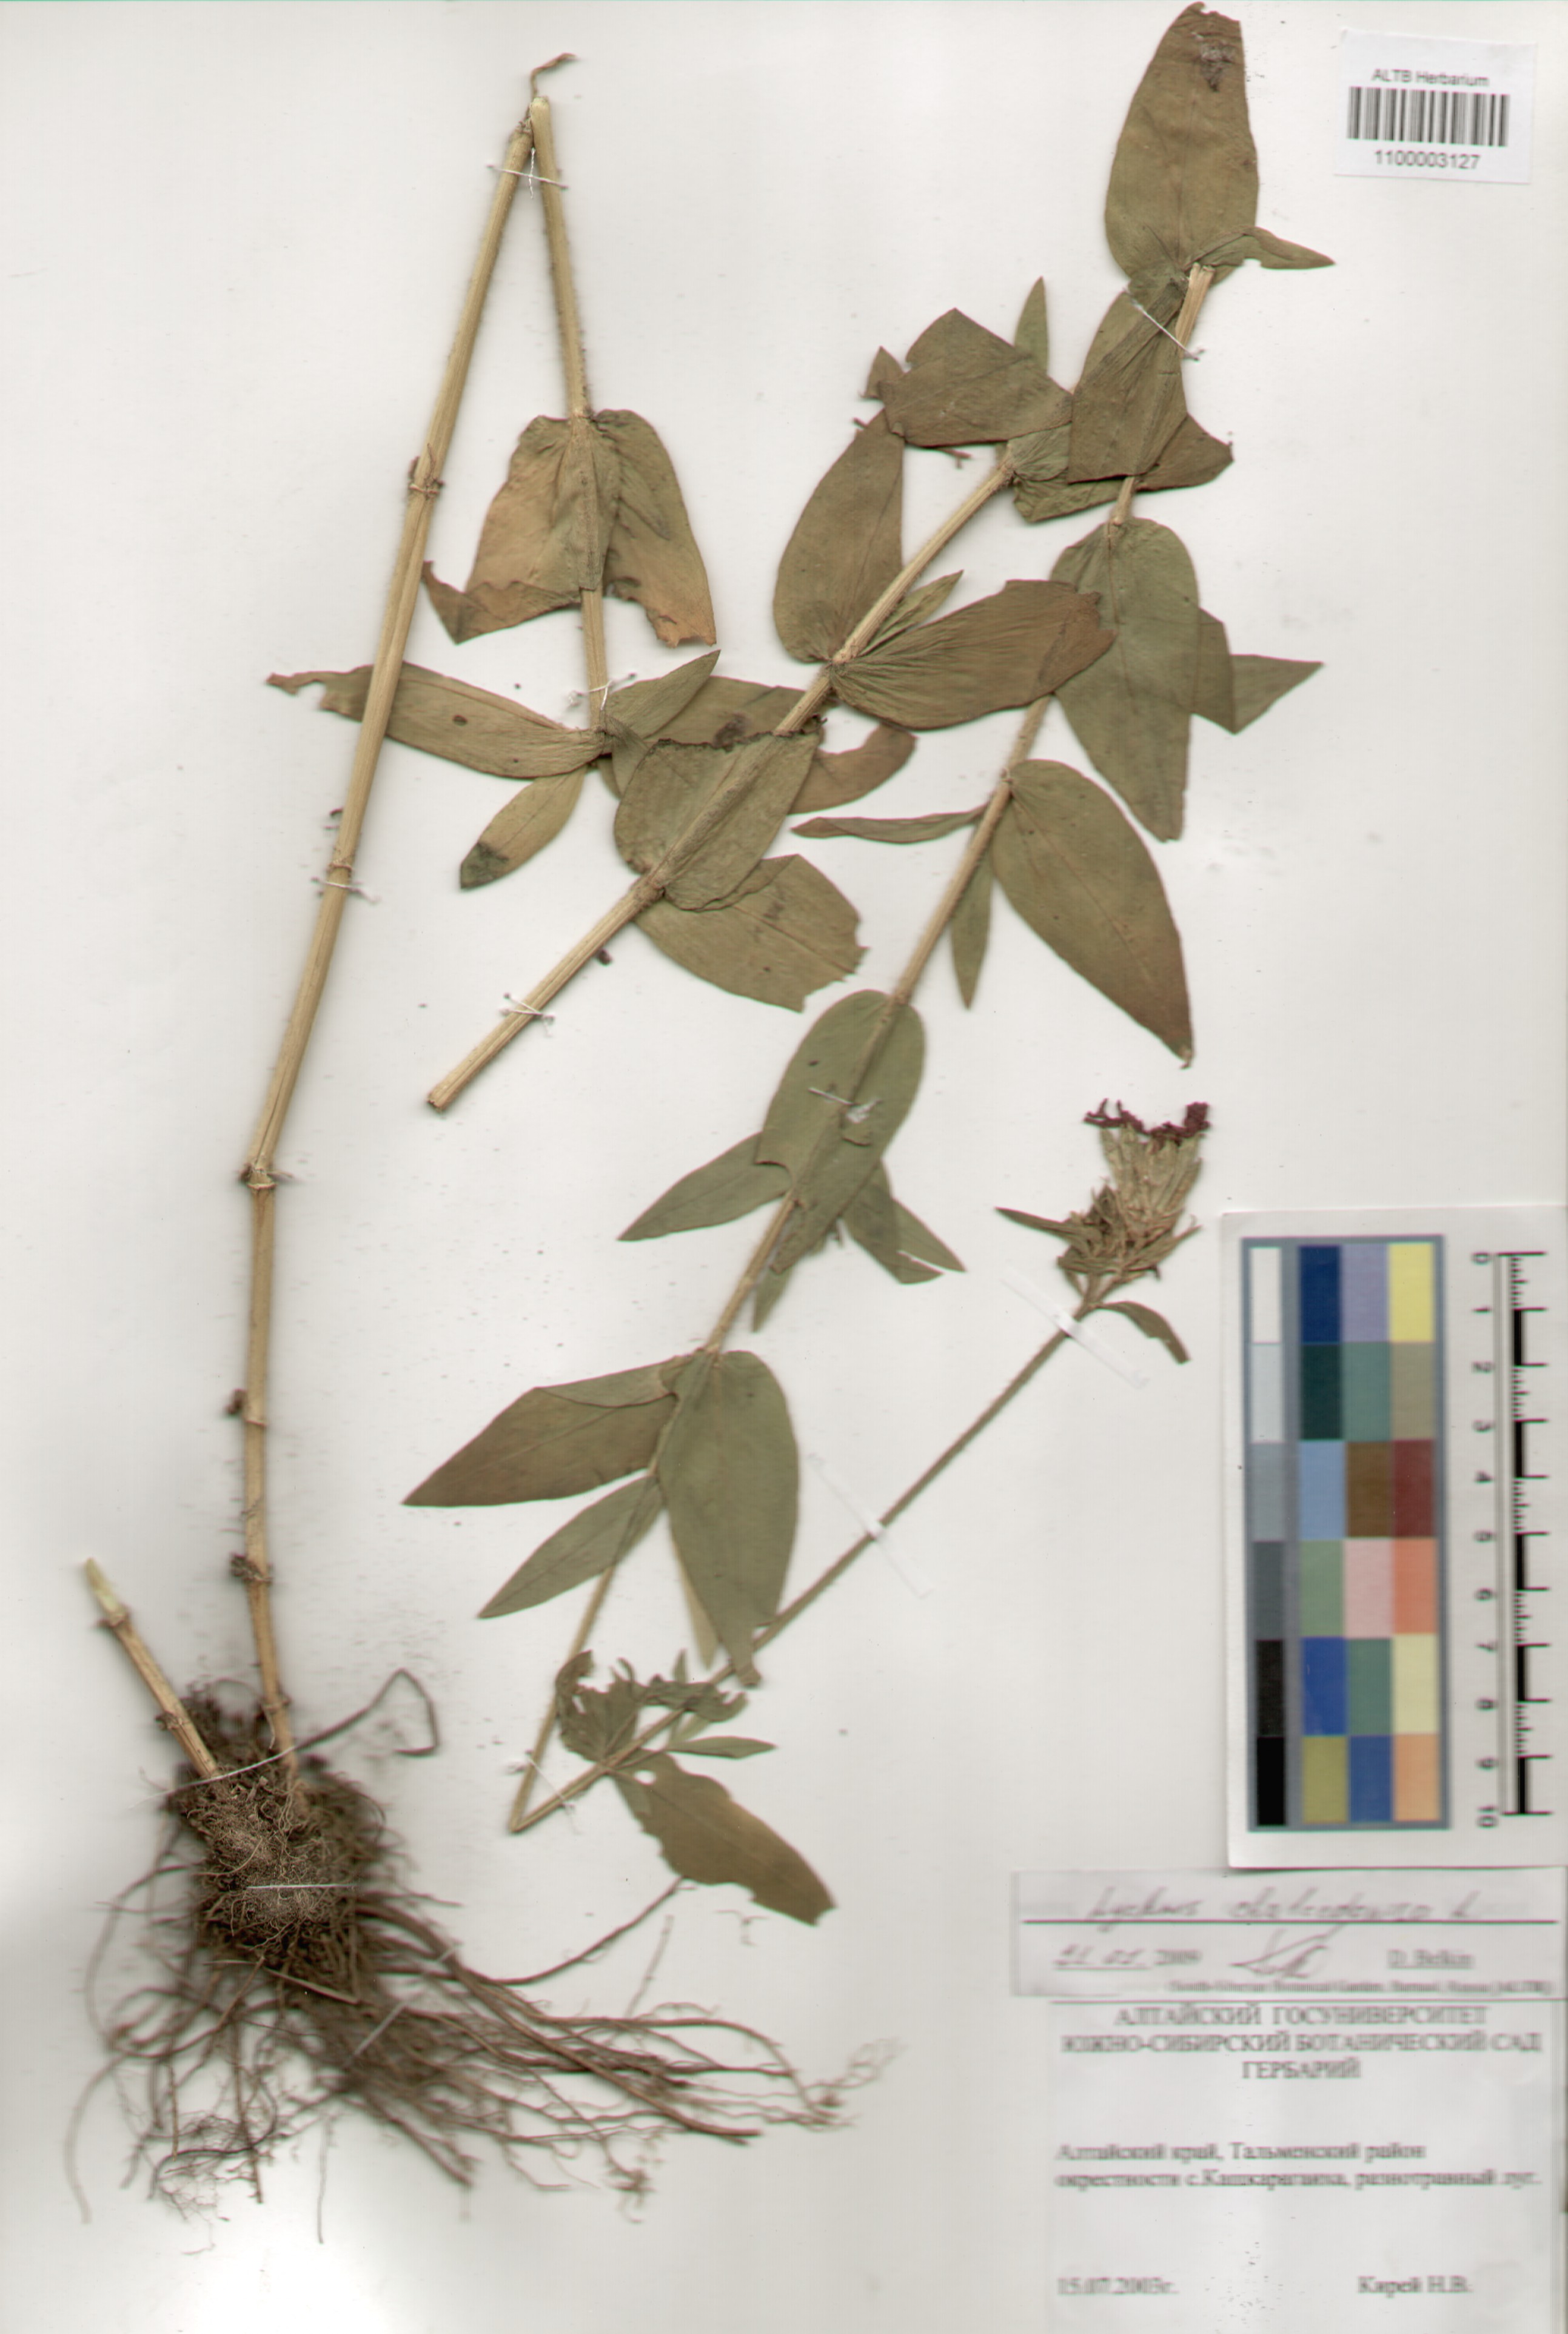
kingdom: Plantae
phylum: Tracheophyta
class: Magnoliopsida
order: Caryophyllales
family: Caryophyllaceae
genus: Silene
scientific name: Silene chalcedonica
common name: Maltese-cross
